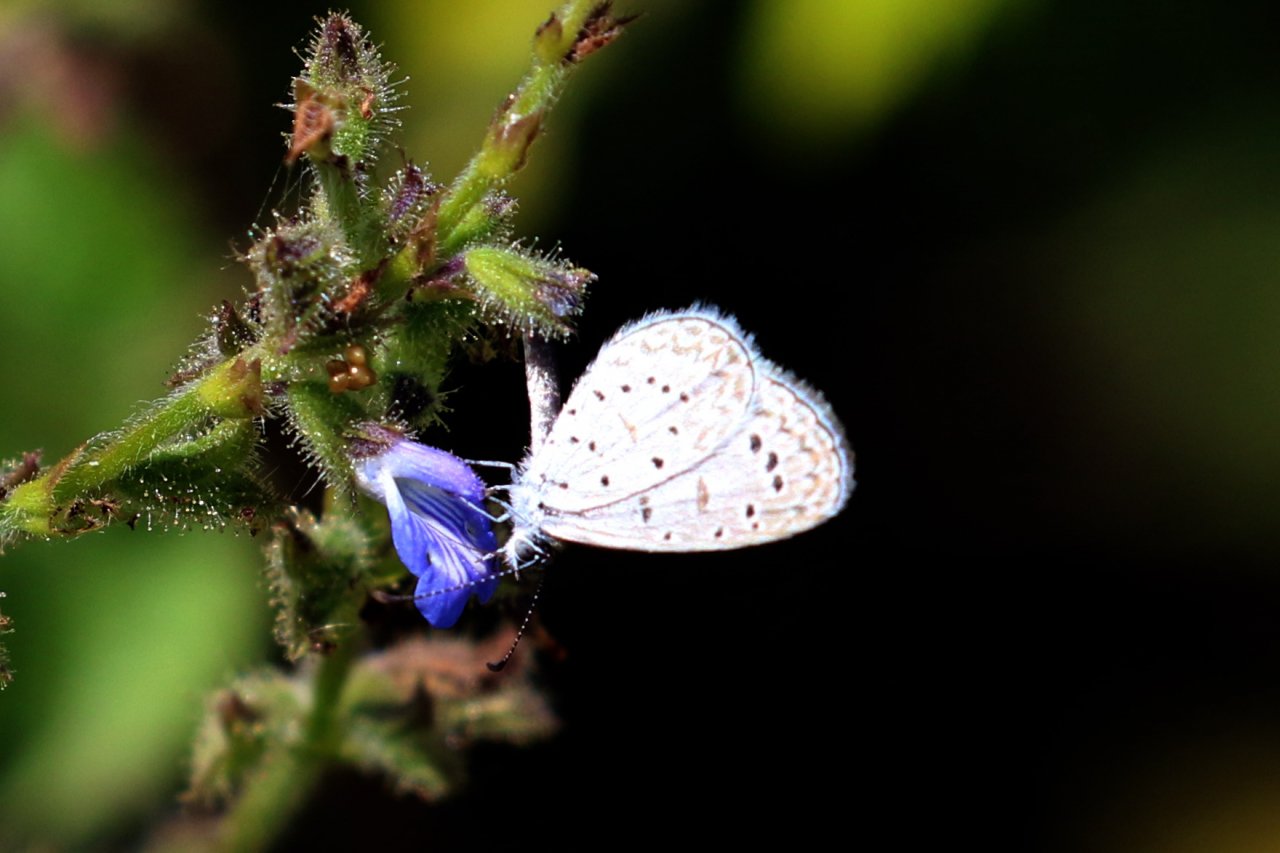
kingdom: Animalia
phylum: Arthropoda
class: Insecta
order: Lepidoptera
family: Lycaenidae
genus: Lycaena
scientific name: Lycaena cyna
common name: Cyna Blue
